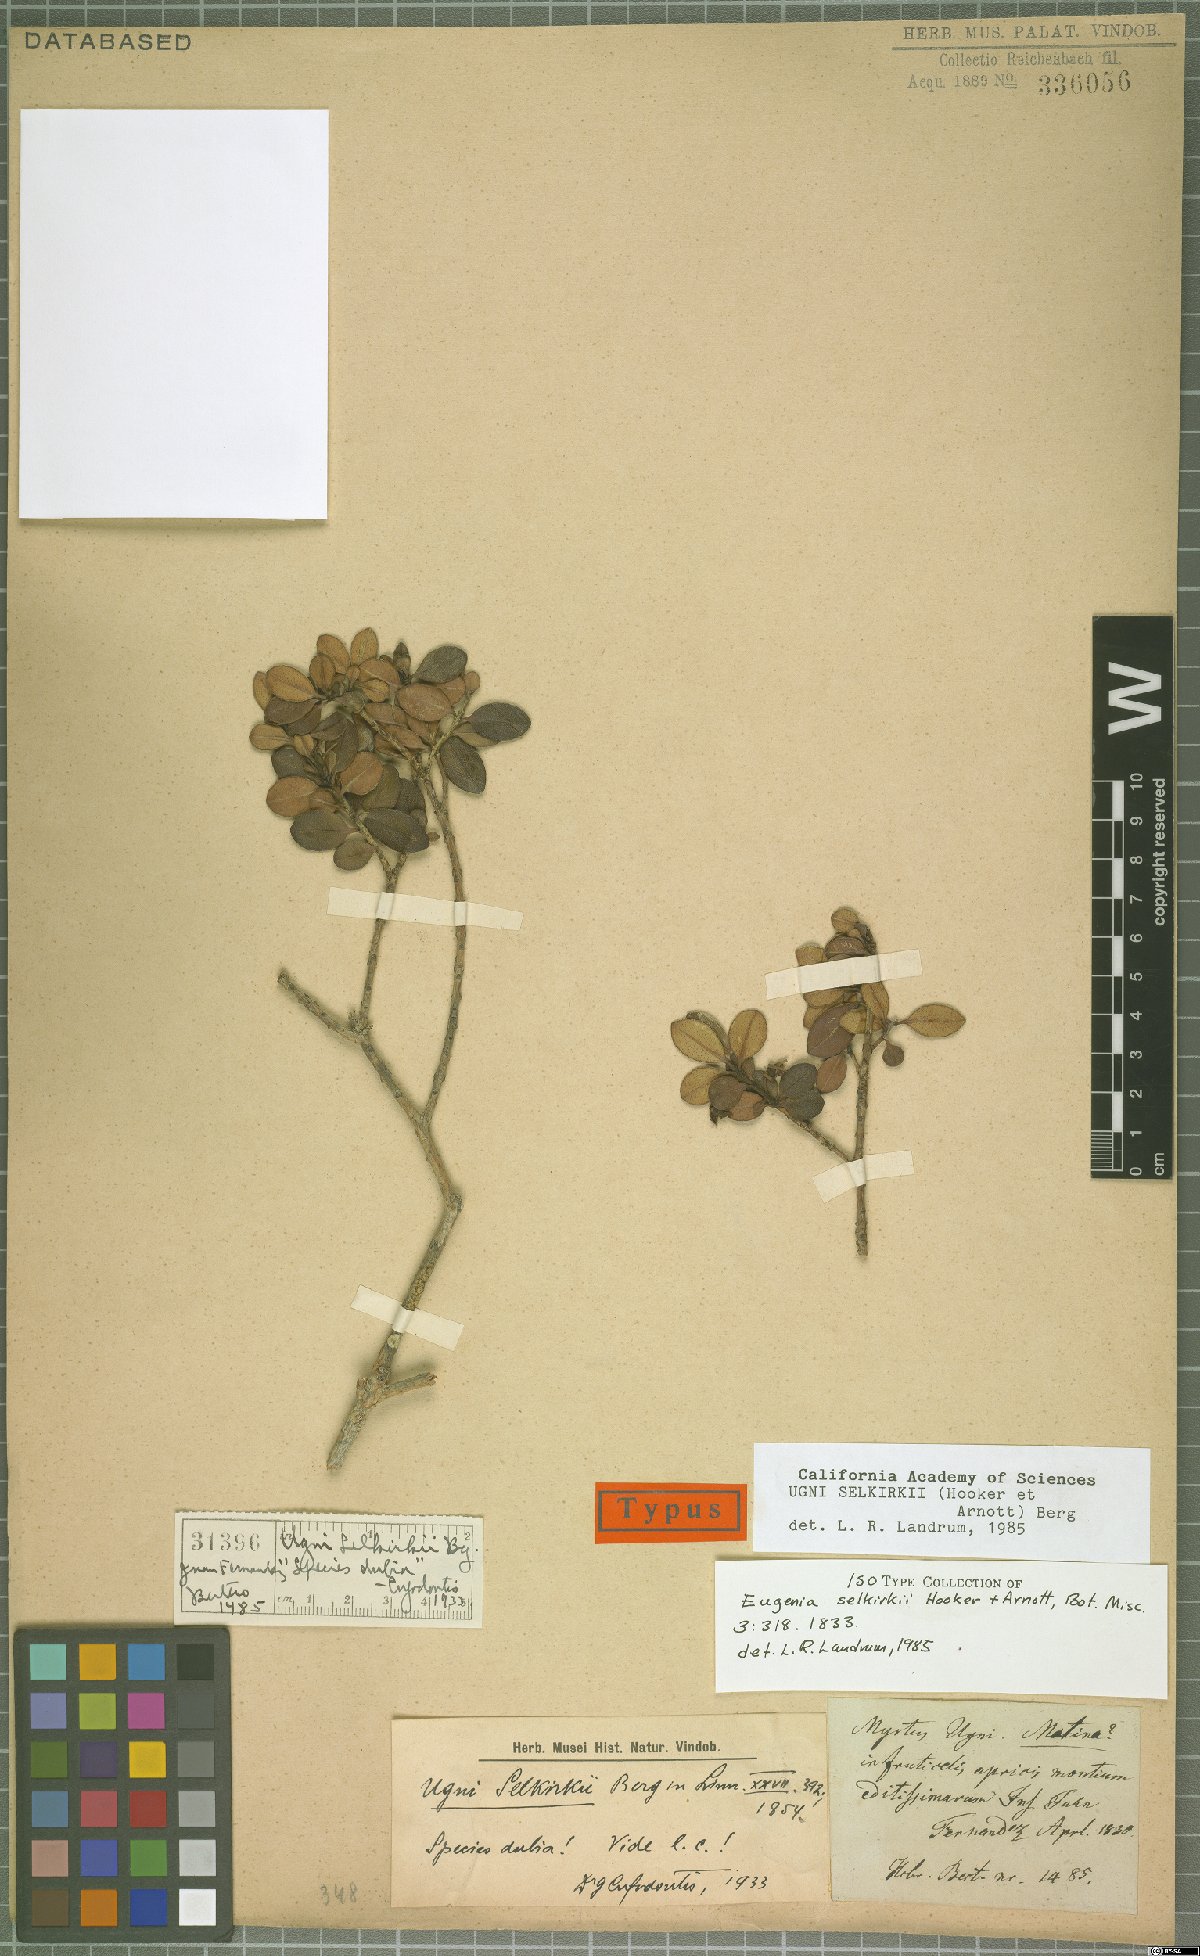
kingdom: Plantae
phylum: Tracheophyta
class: Magnoliopsida
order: Myrtales
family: Myrtaceae
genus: Ugni
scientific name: Ugni selkirkii
